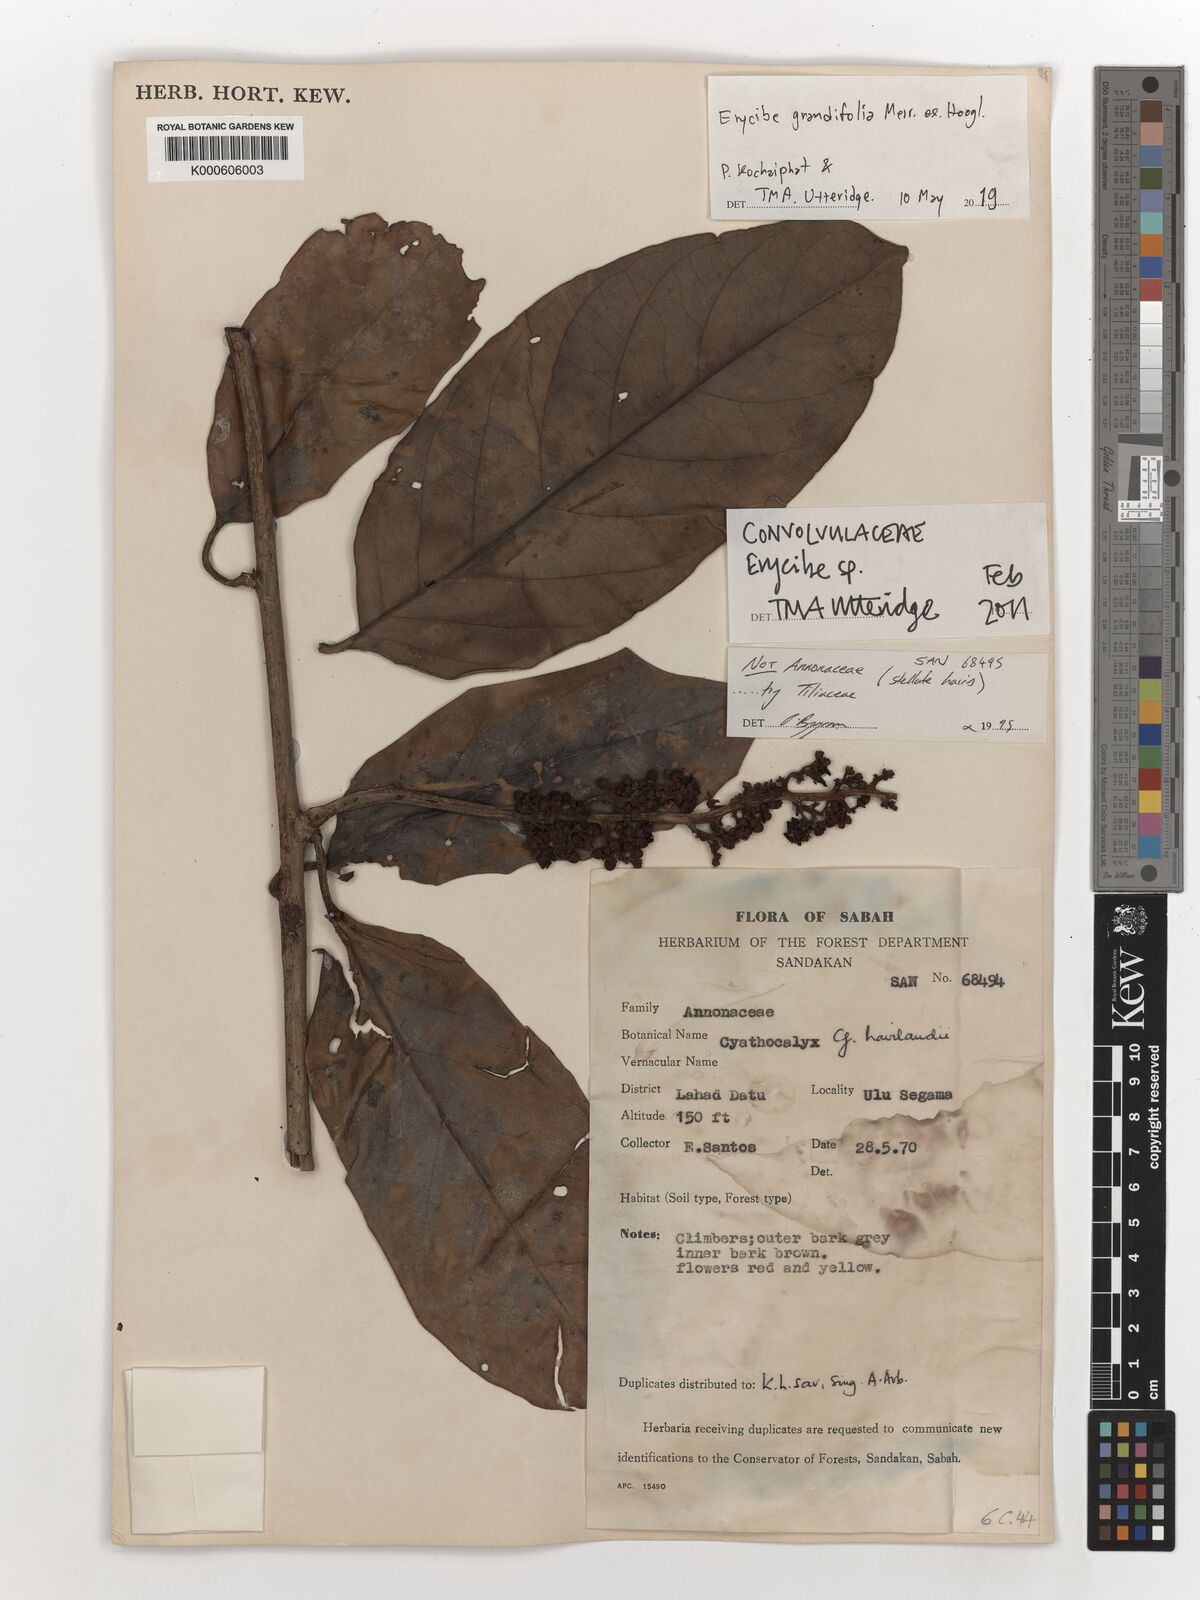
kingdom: Plantae
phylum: Tracheophyta
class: Magnoliopsida
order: Solanales
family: Convolvulaceae
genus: Erycibe
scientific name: Erycibe
